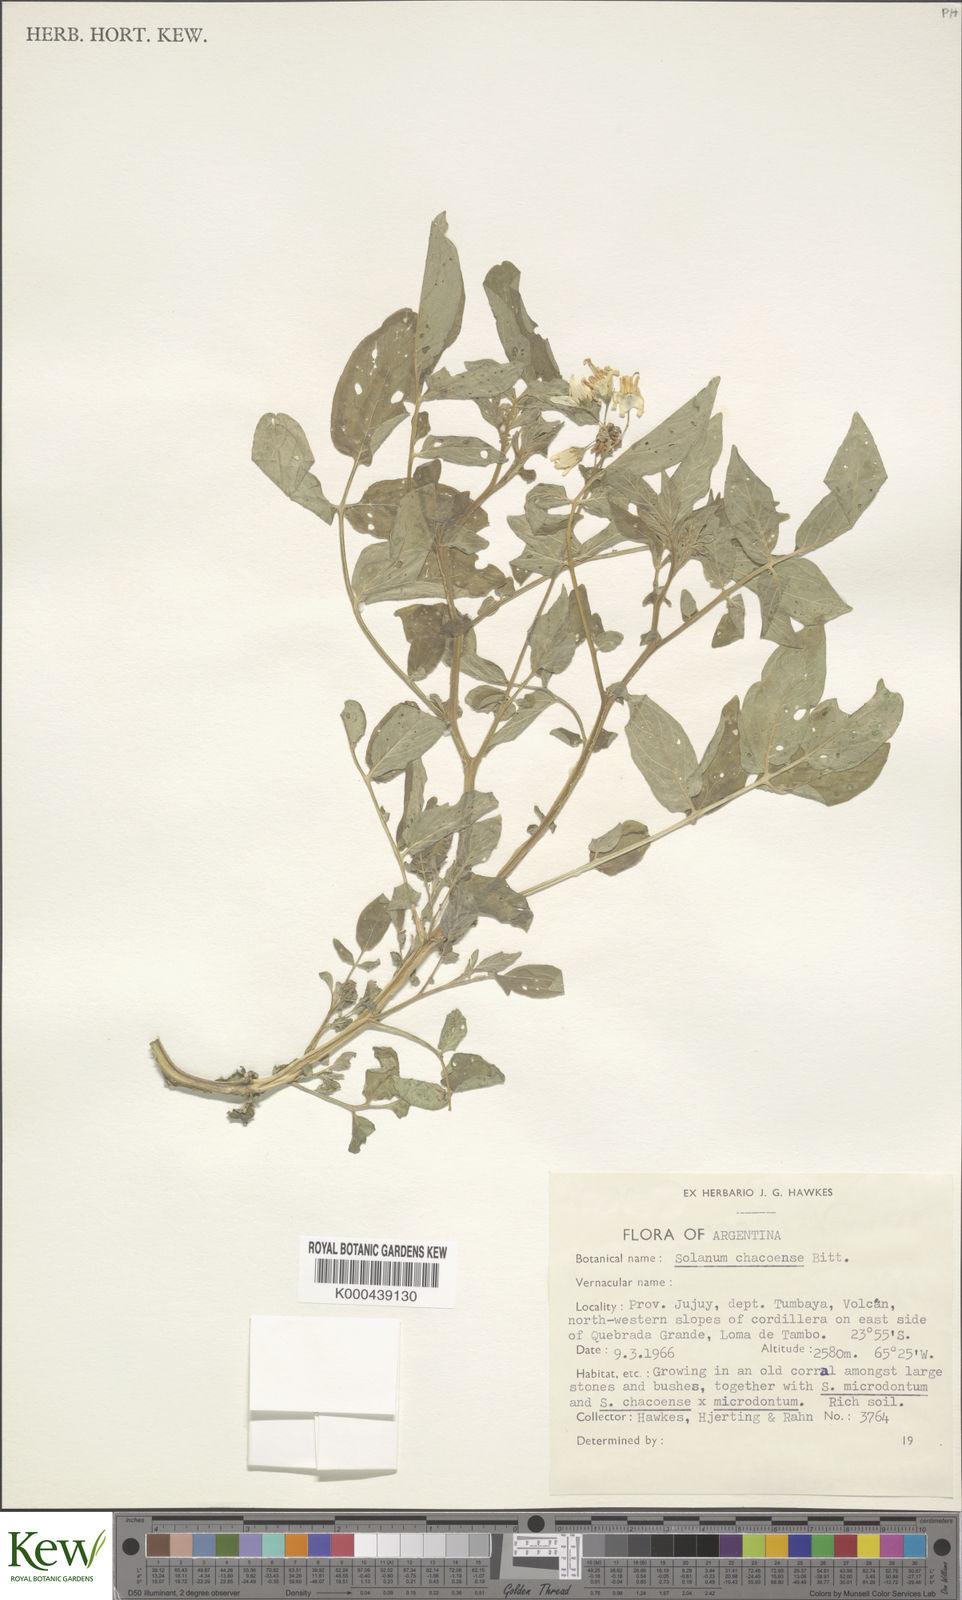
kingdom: Plantae
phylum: Tracheophyta
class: Magnoliopsida
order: Solanales
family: Solanaceae
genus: Solanum
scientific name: Solanum chacoense
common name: Chaco potato
